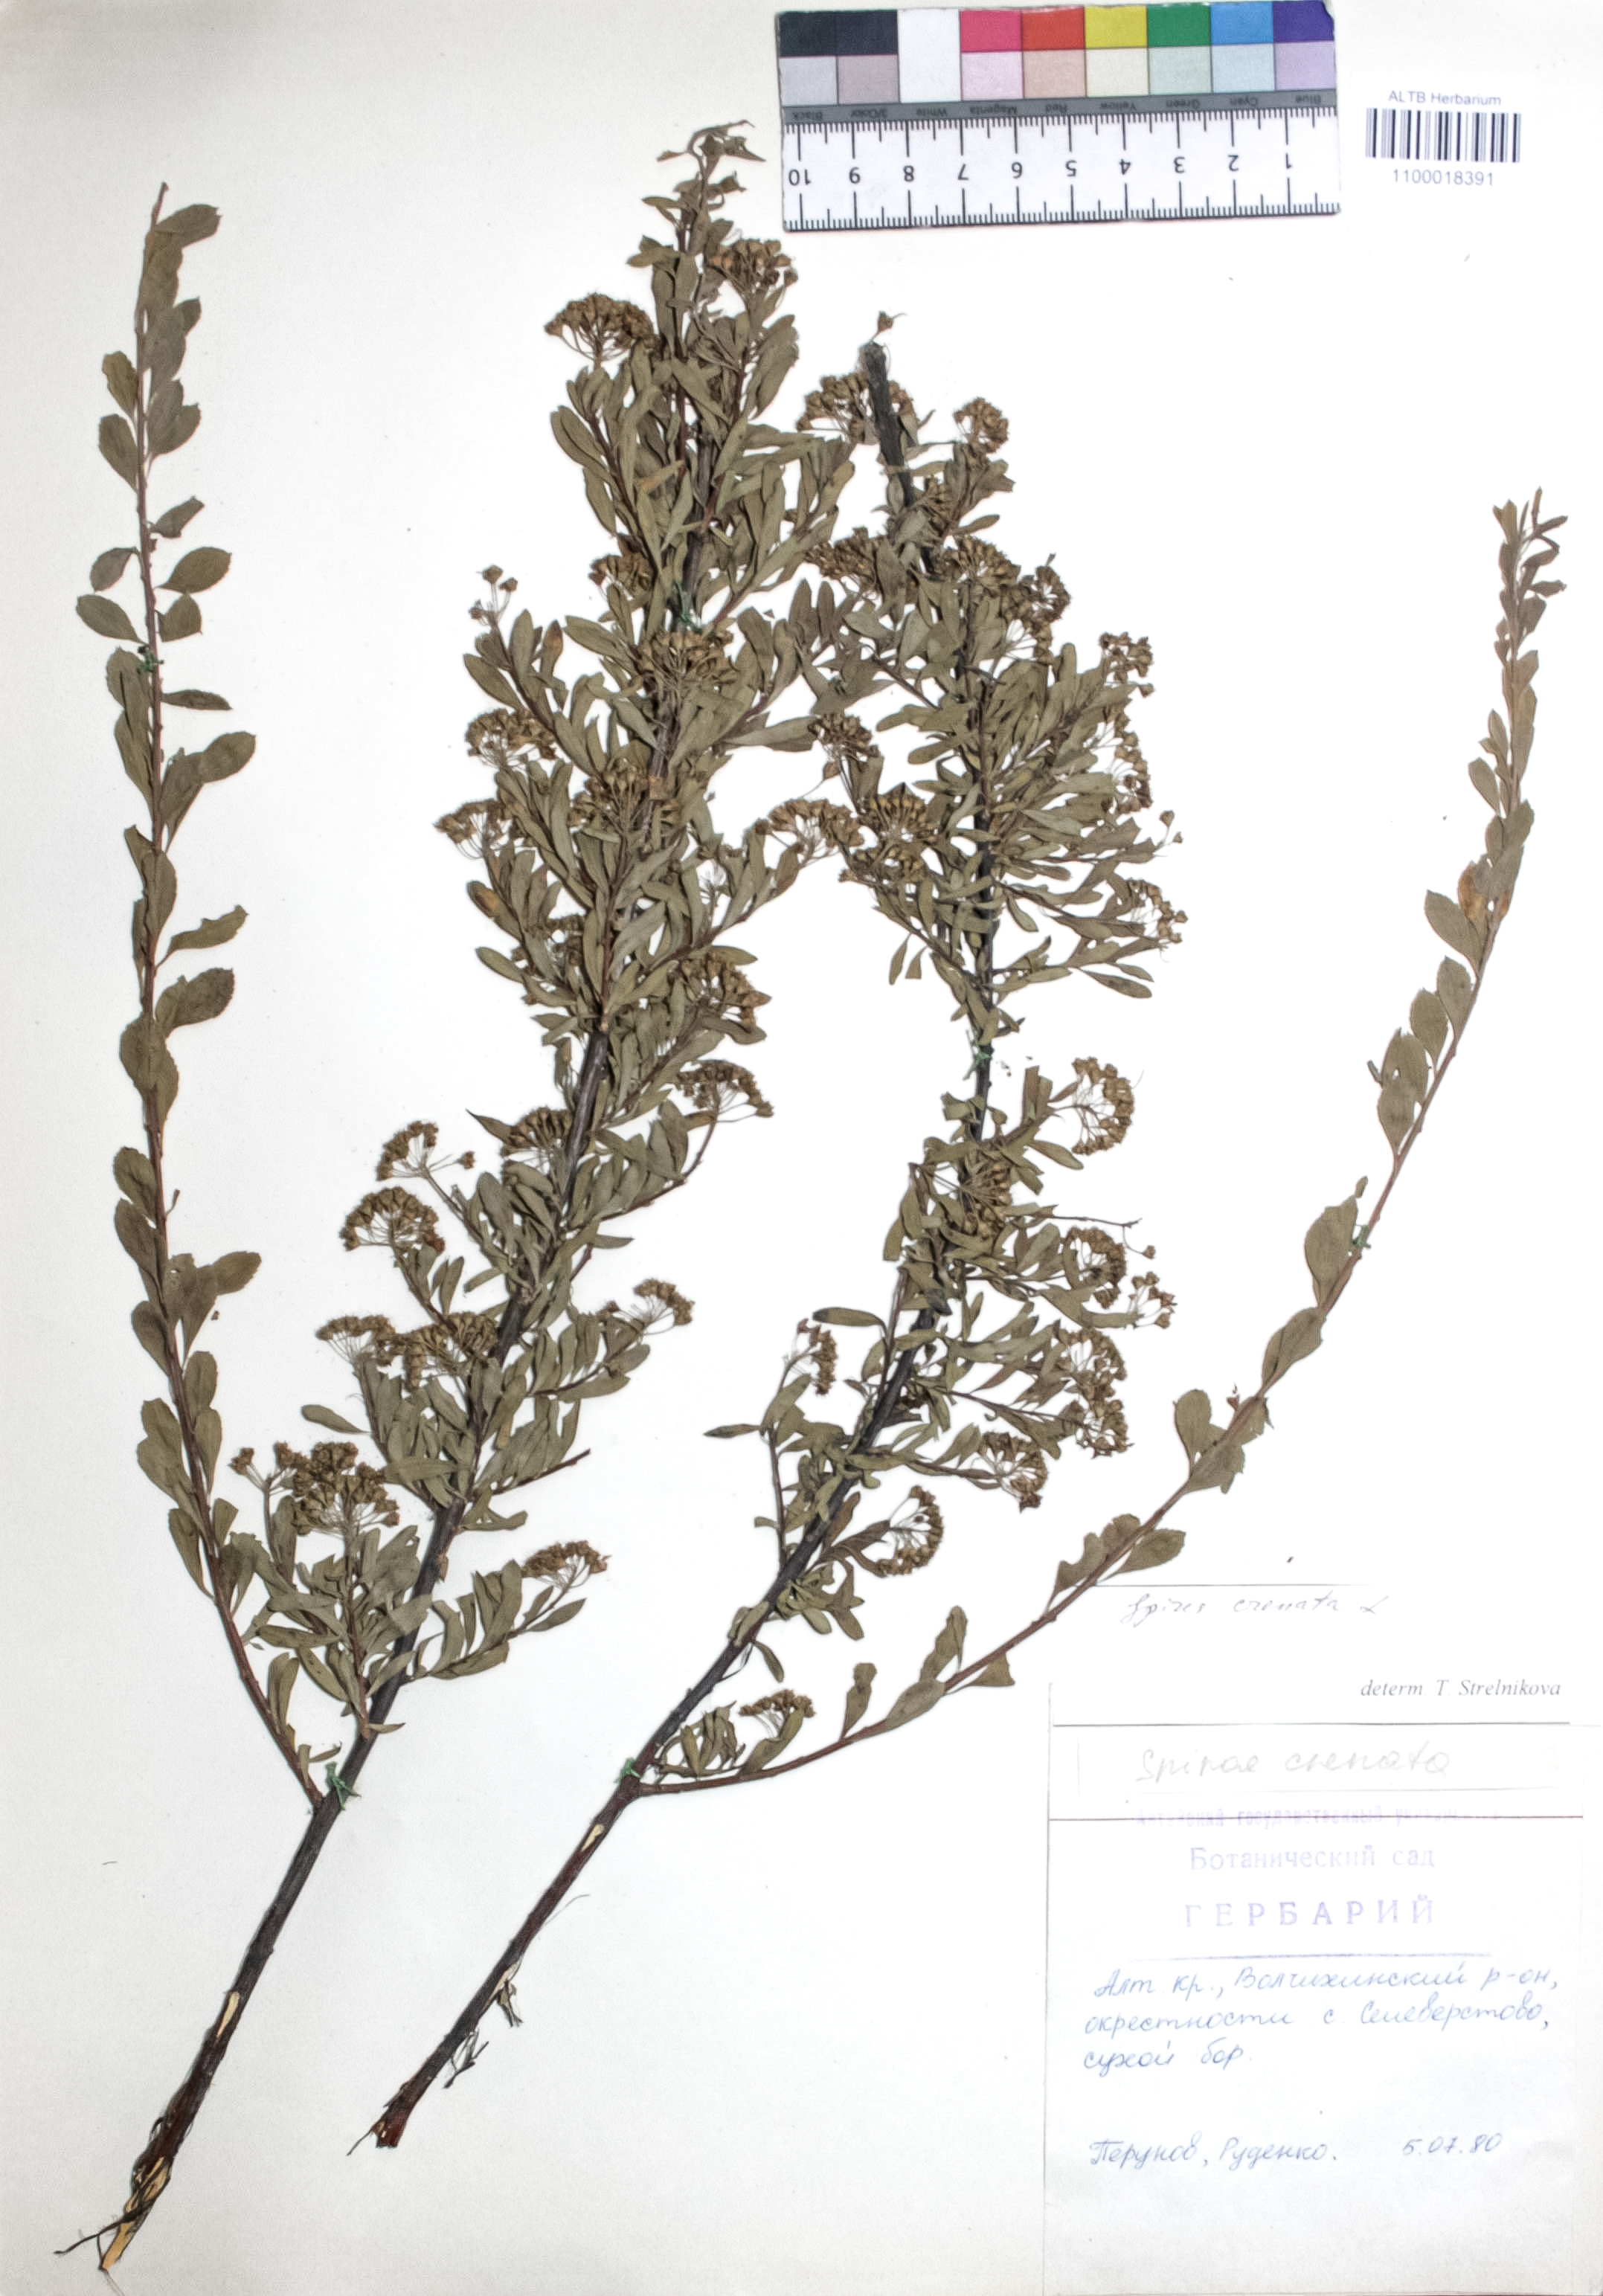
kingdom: Plantae
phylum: Tracheophyta
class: Magnoliopsida
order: Rosales
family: Rosaceae
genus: Spiraea
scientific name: Spiraea crenata
